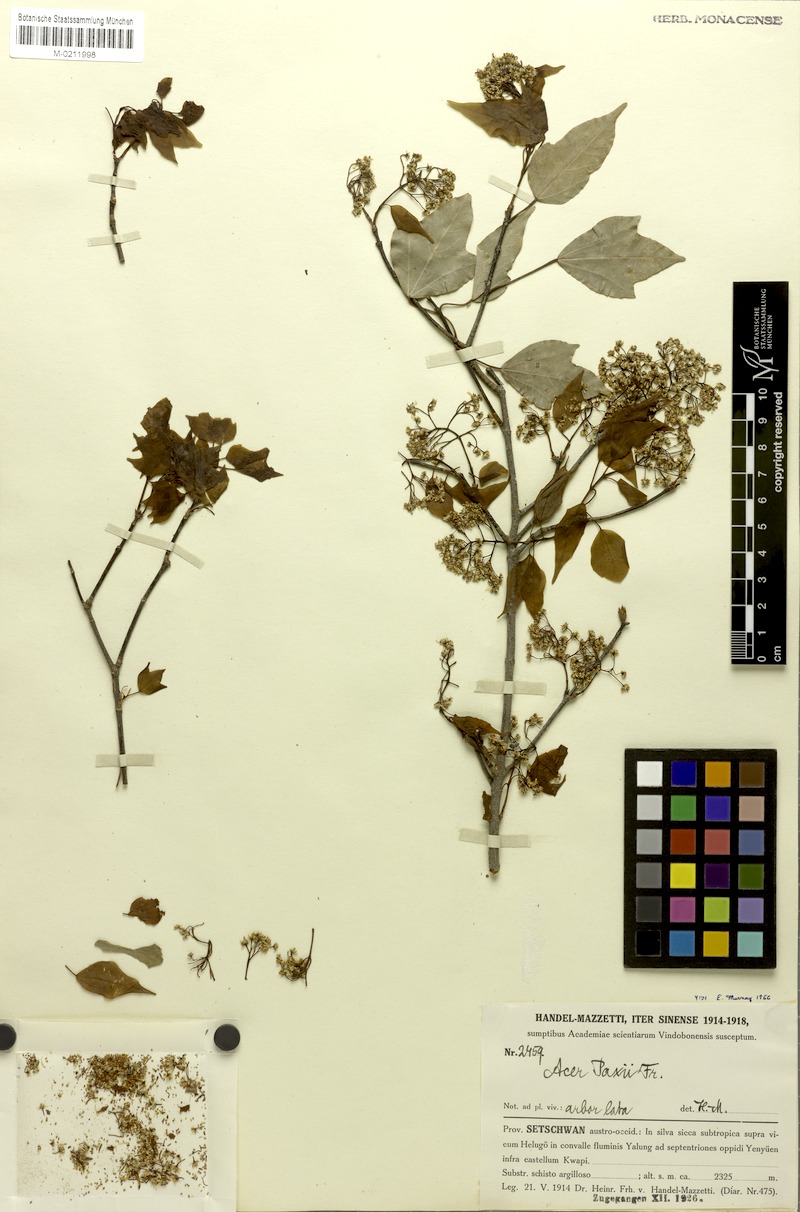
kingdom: Plantae
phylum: Tracheophyta
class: Magnoliopsida
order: Sapindales
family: Sapindaceae
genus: Acer
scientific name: Acer paxii
